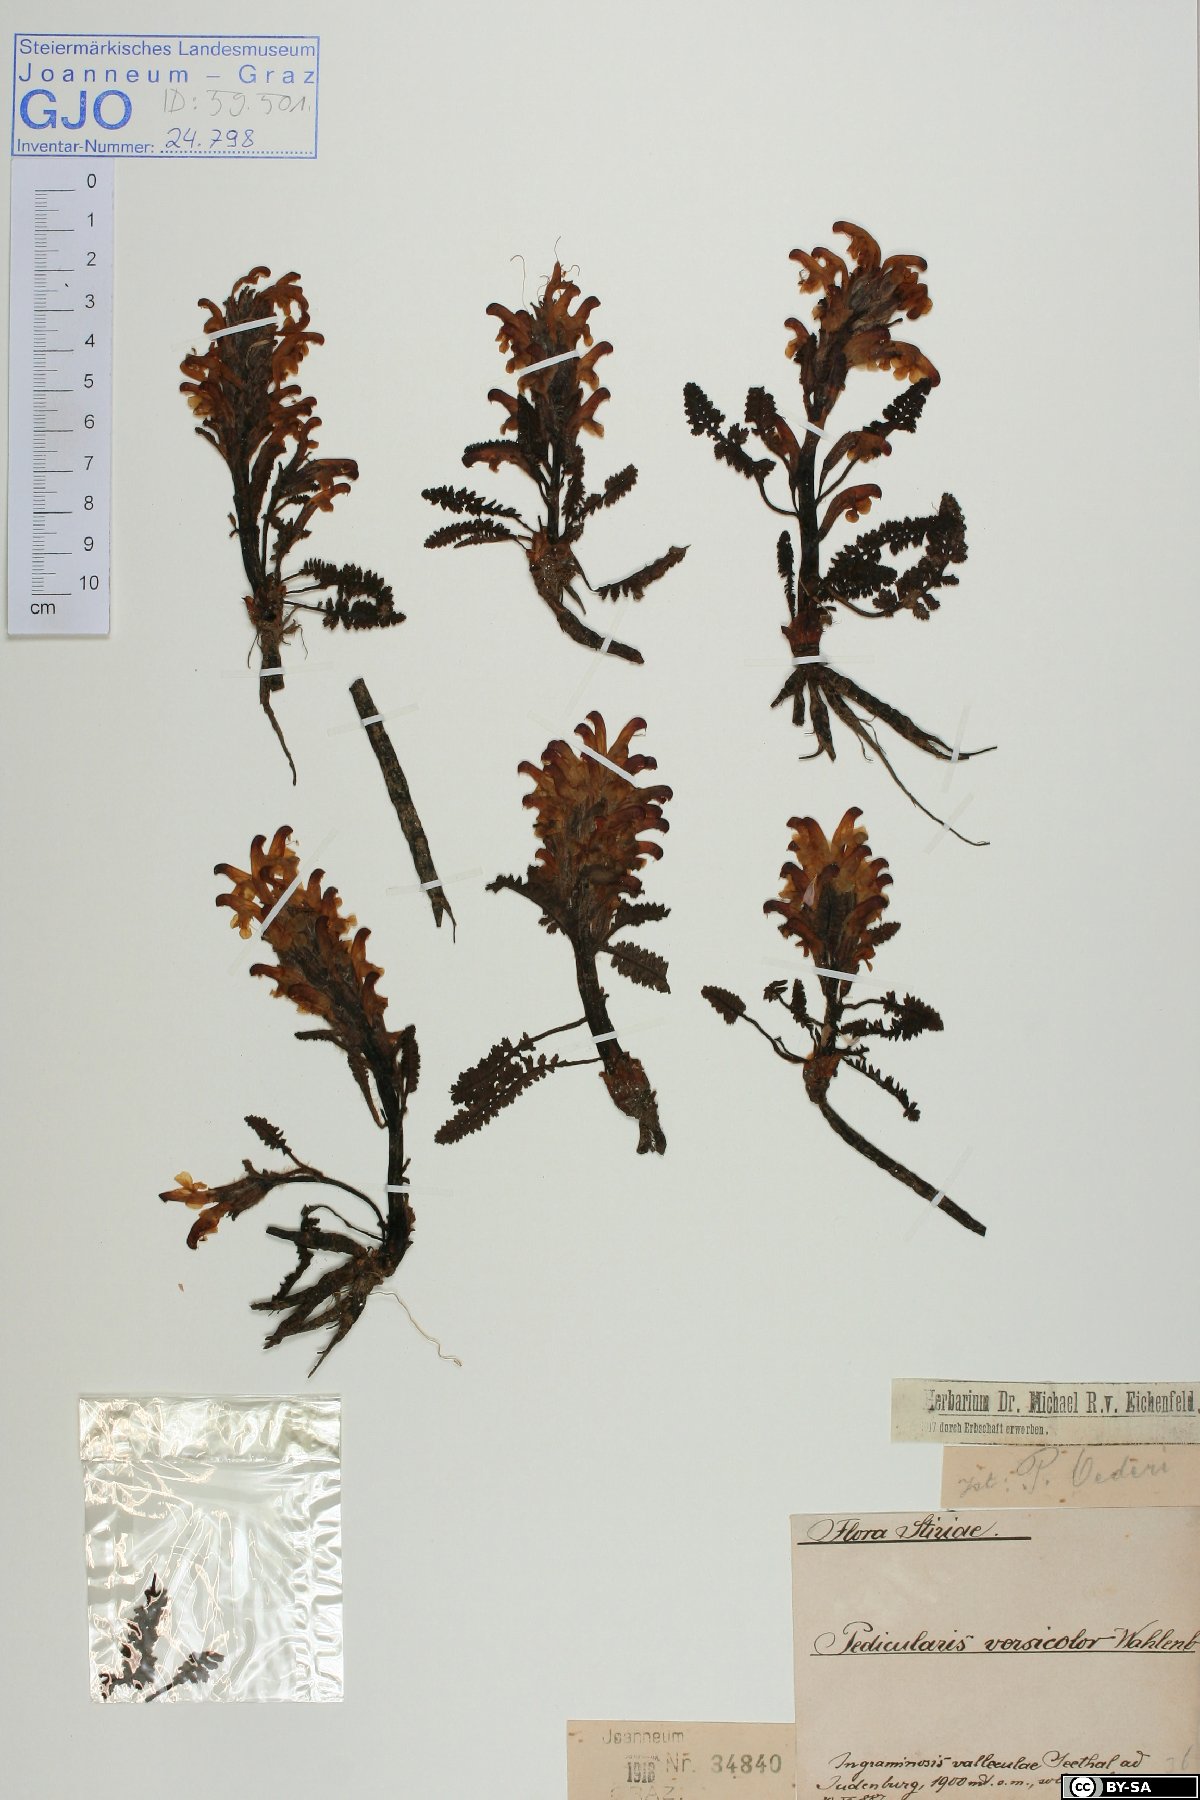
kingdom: Plantae
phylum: Tracheophyta
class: Magnoliopsida
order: Lamiales
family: Orobanchaceae
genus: Pedicularis
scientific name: Pedicularis oederi
